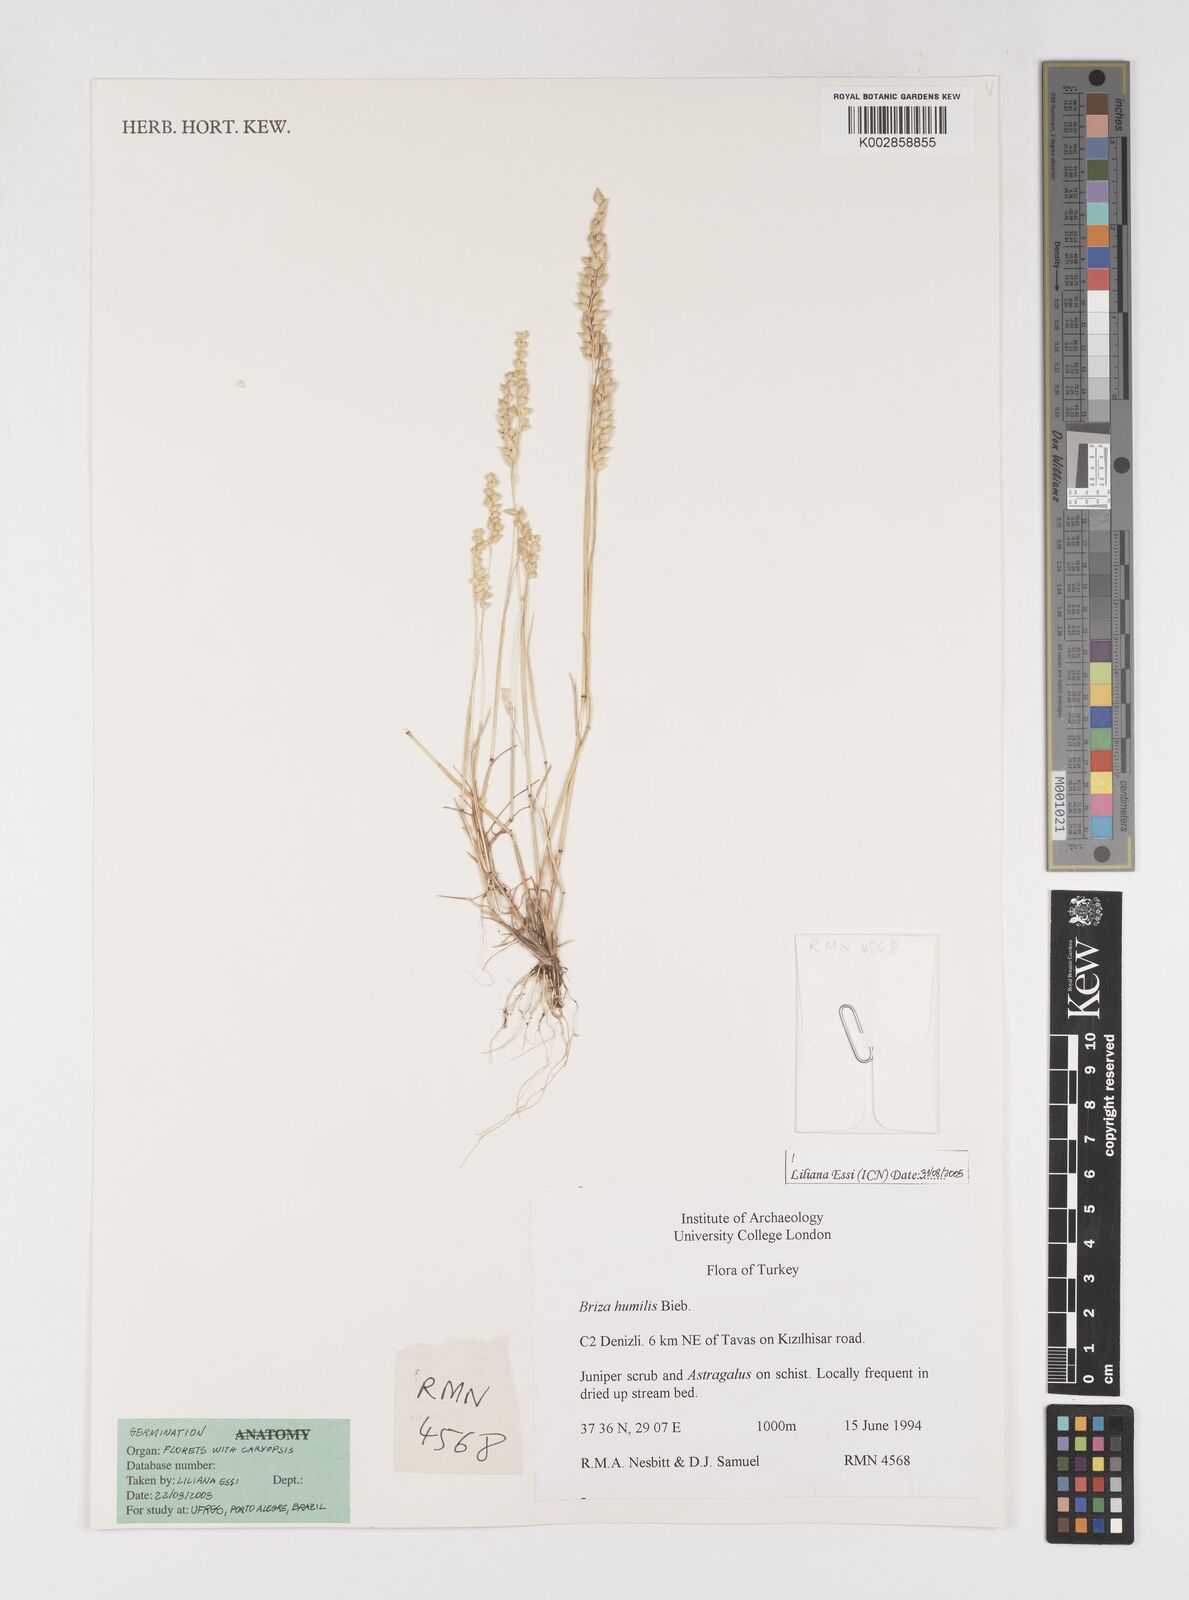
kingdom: Plantae
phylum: Tracheophyta
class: Liliopsida
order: Poales
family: Poaceae
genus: Briza
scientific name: Briza humilis
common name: Spiked quaking grass
